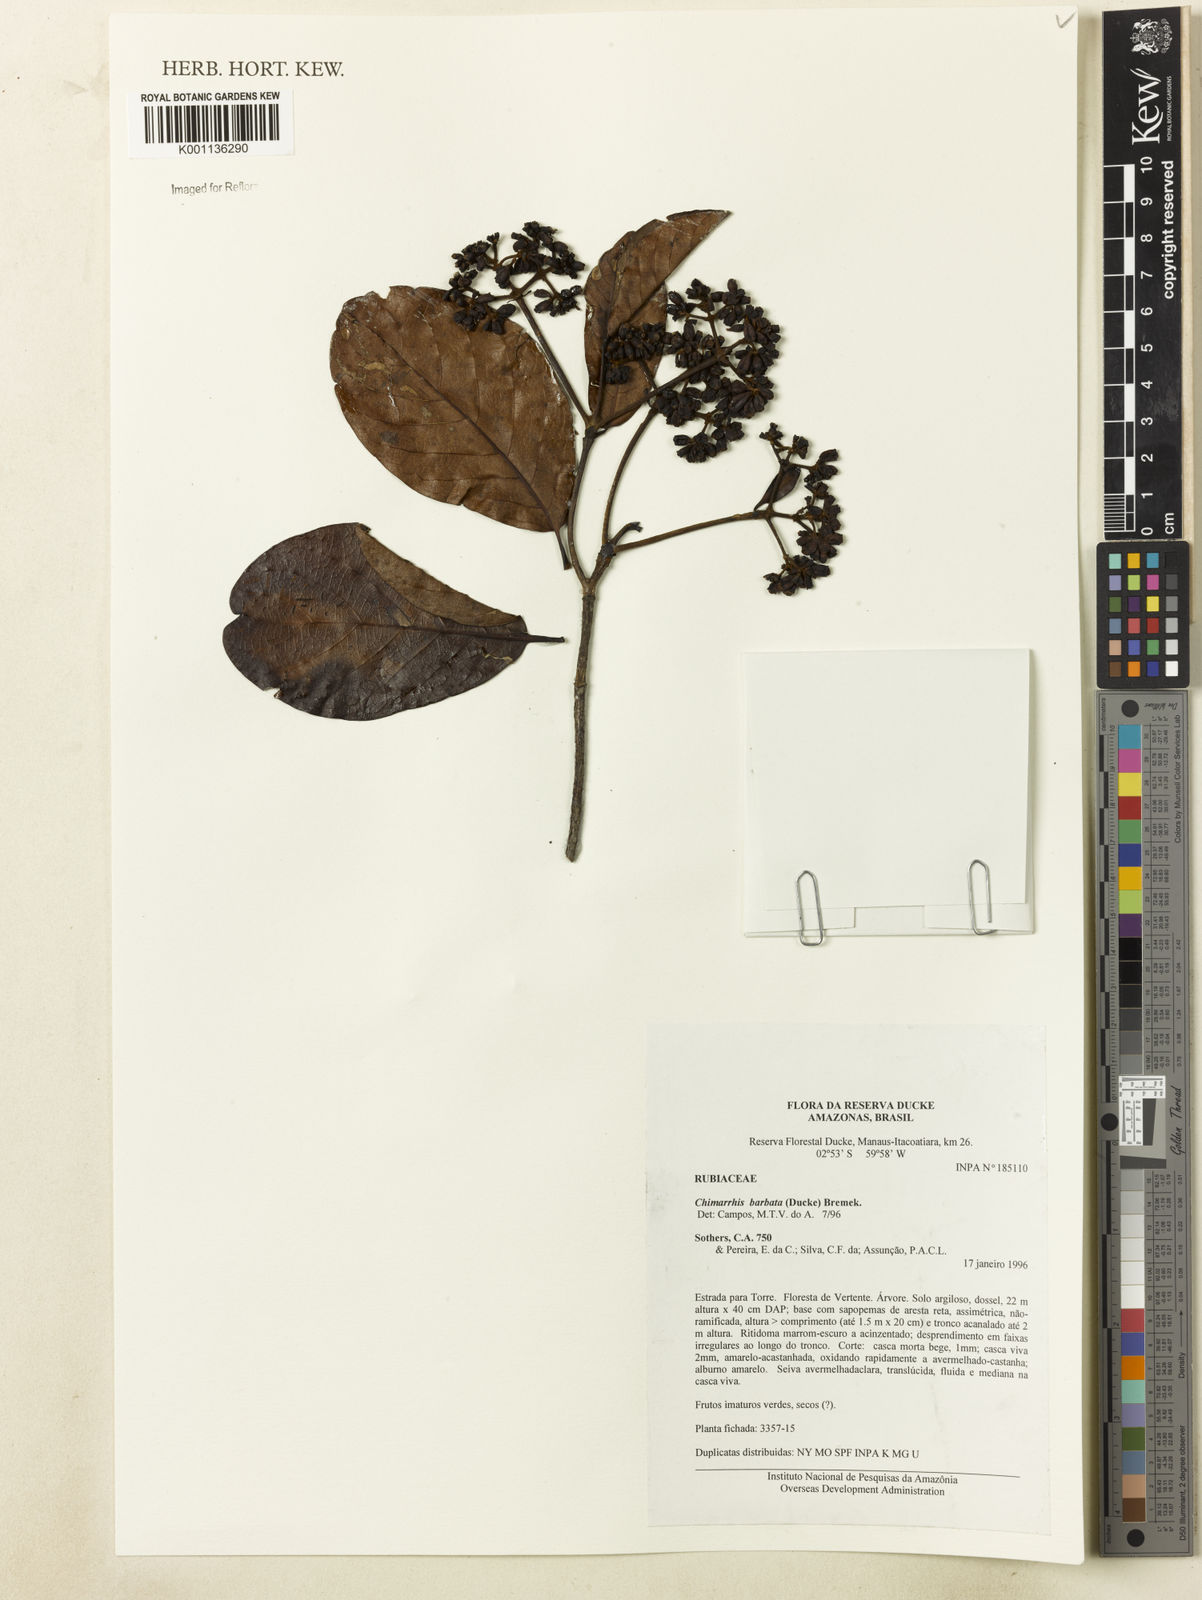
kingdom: Plantae
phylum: Tracheophyta
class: Magnoliopsida
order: Gentianales
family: Rubiaceae
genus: Chimarrhis
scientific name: Chimarrhis barbata
